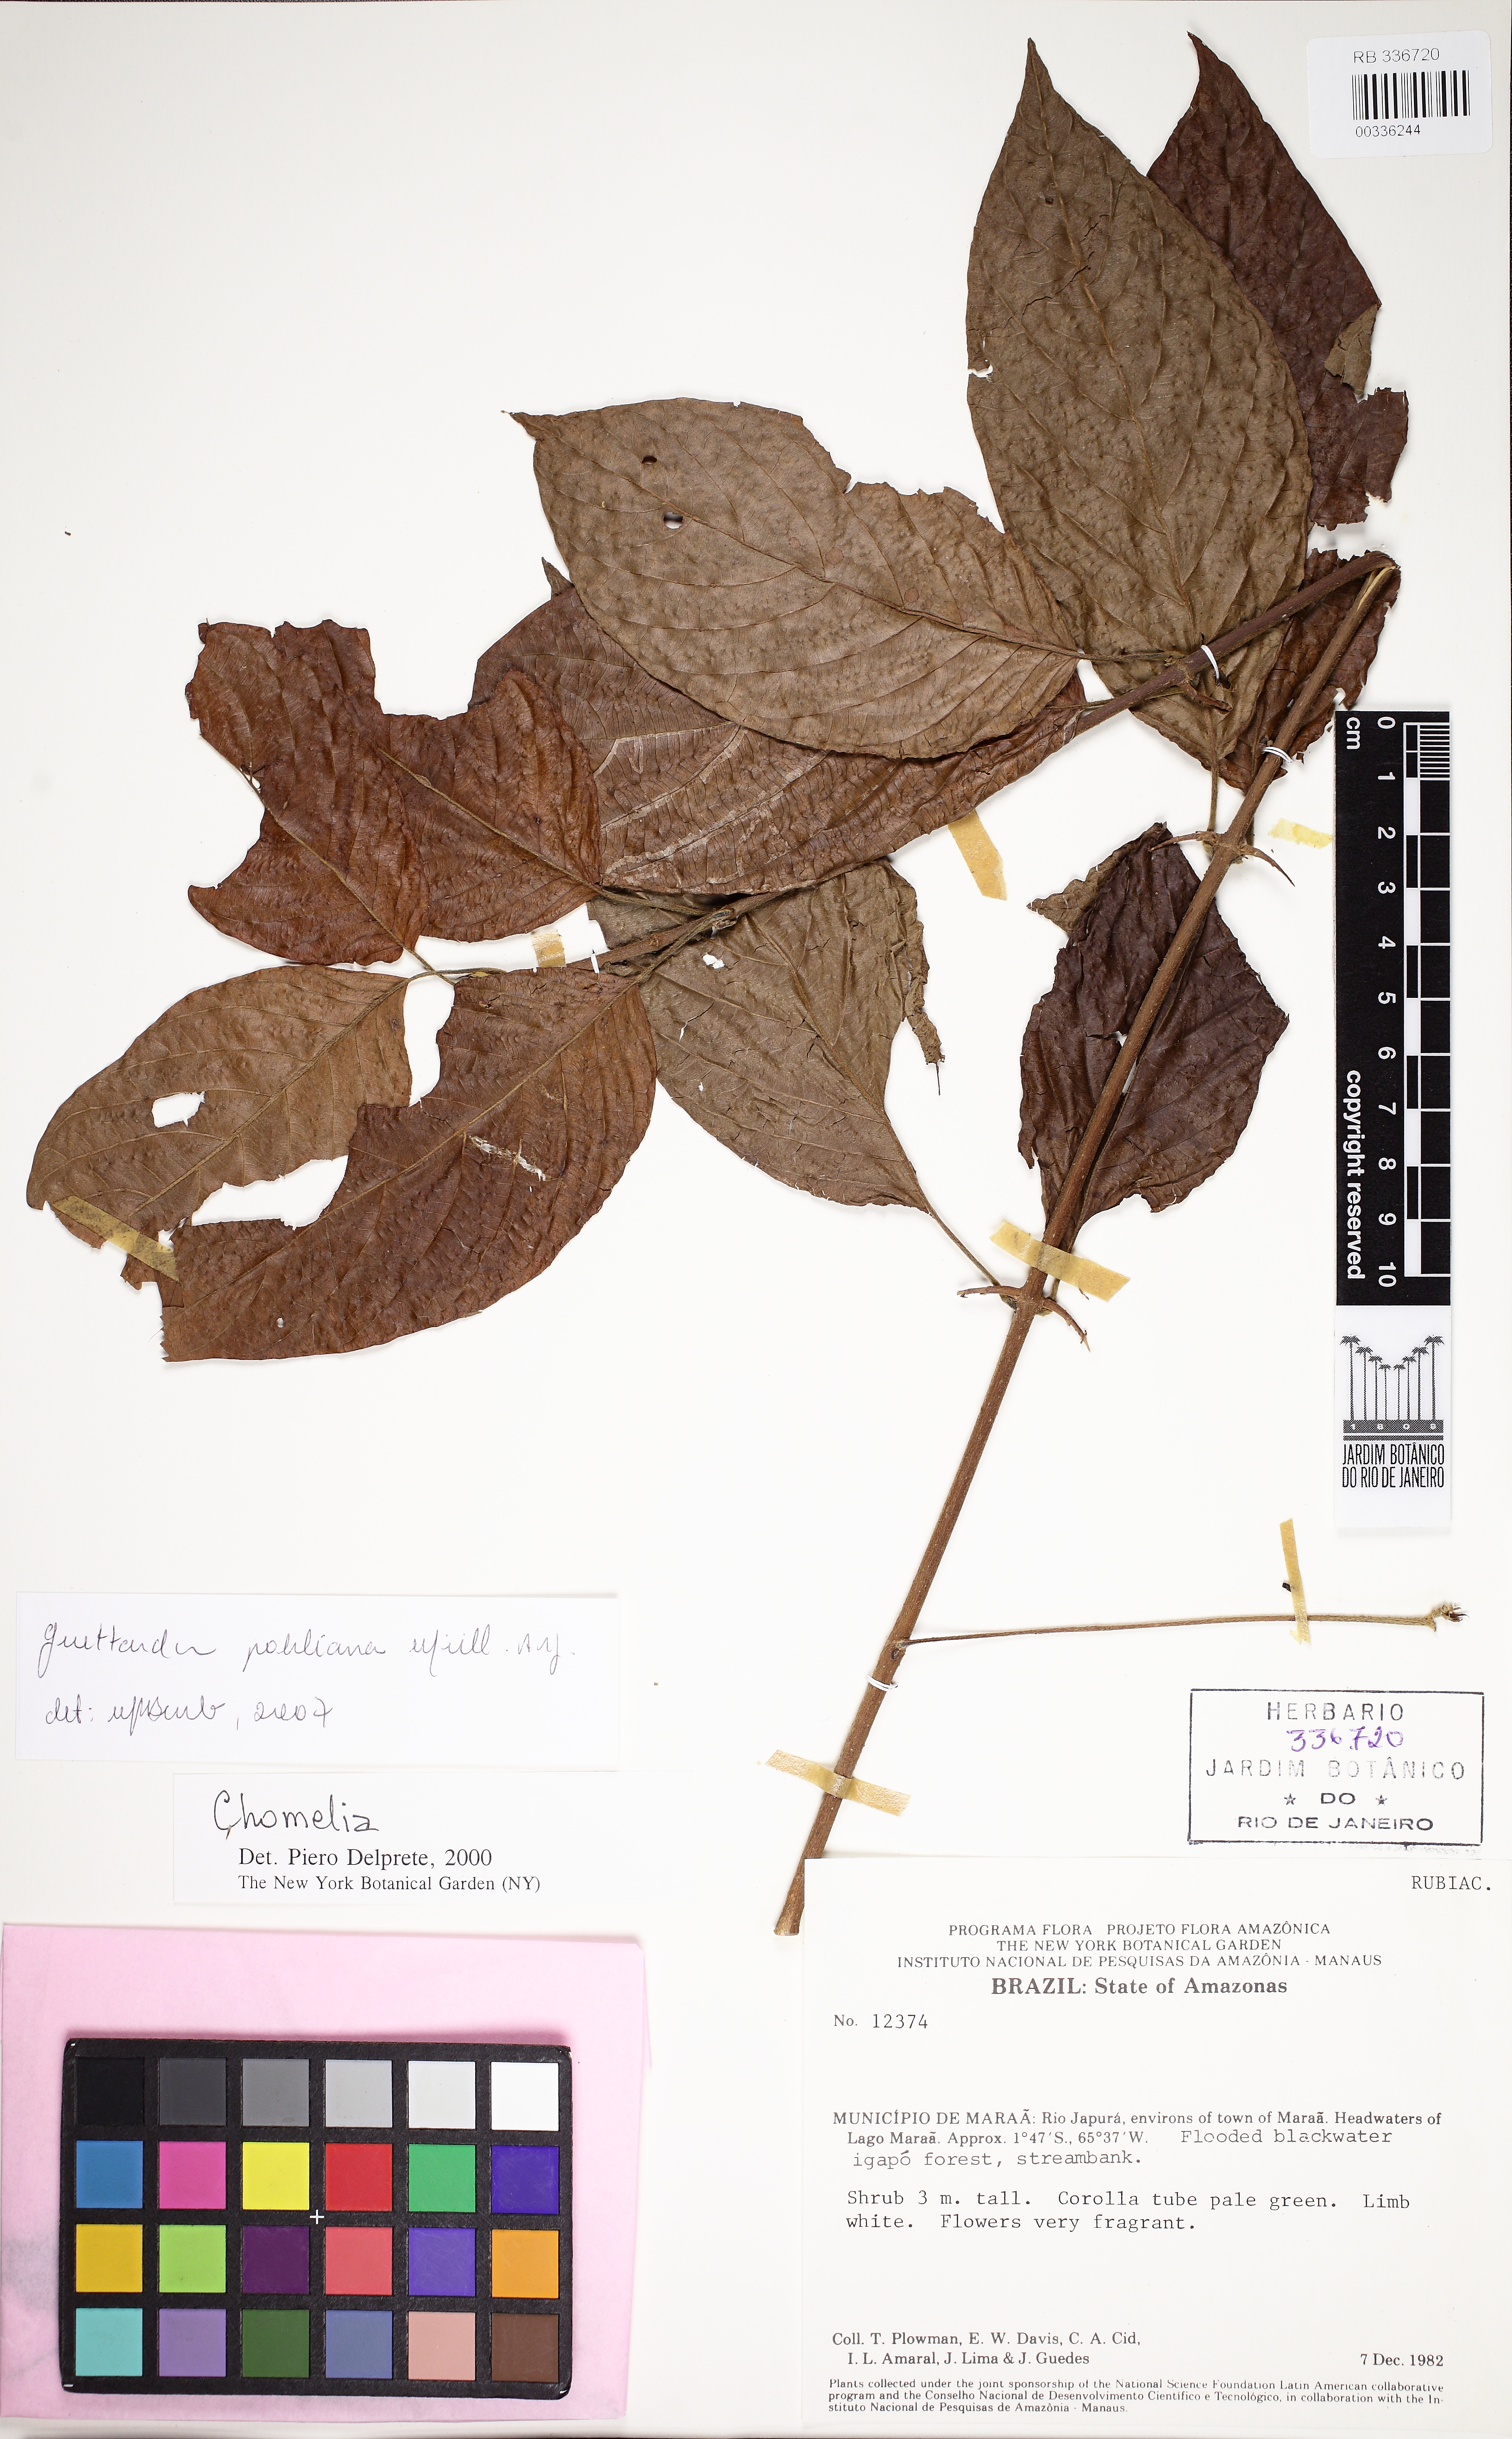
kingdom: Plantae
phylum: Tracheophyta
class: Magnoliopsida
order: Gentianales
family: Rubiaceae
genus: Guettarda
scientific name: Guettarda pohliana
